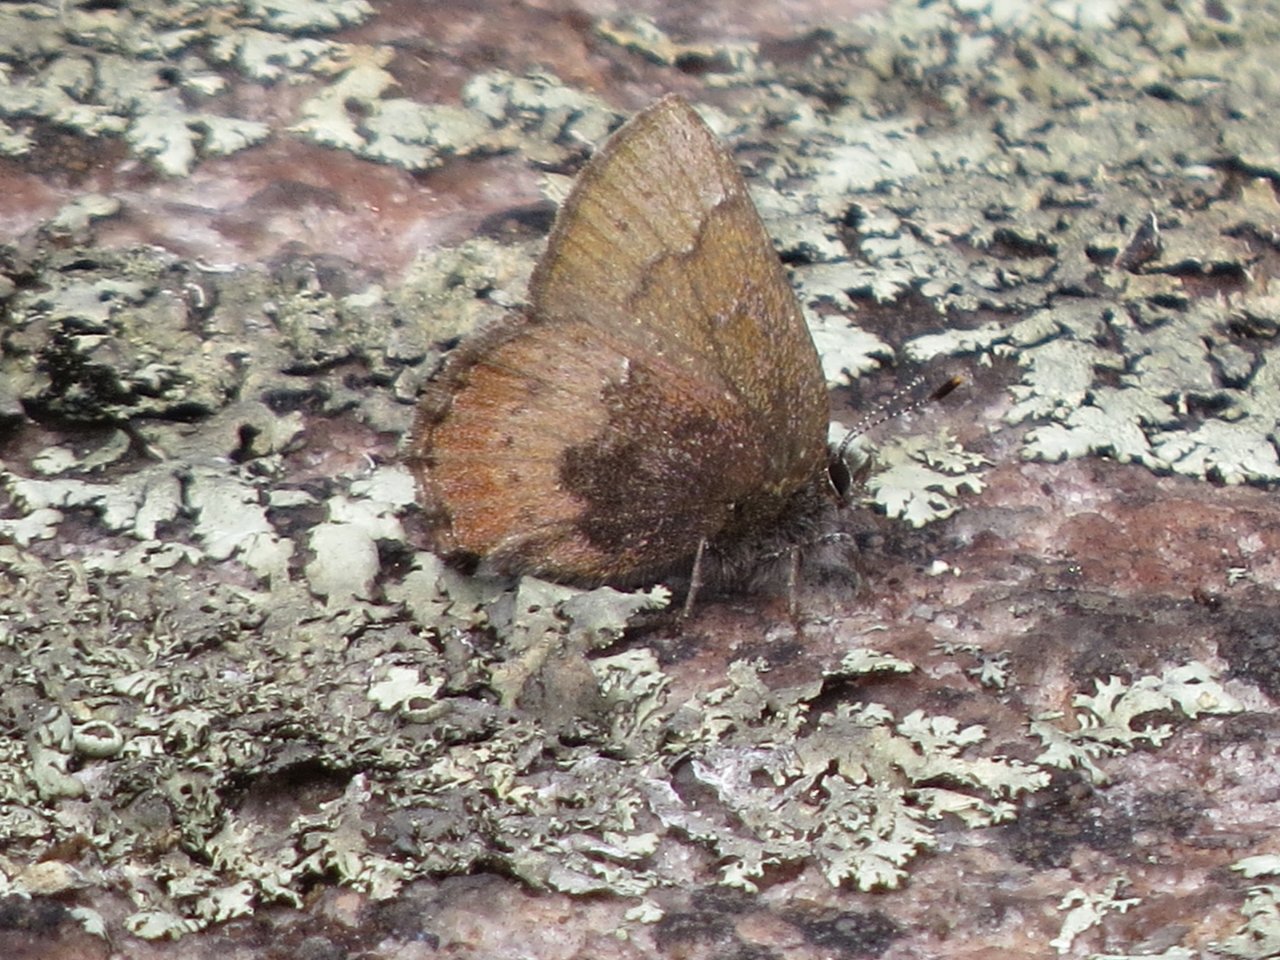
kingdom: Animalia
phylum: Arthropoda
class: Insecta
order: Lepidoptera
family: Lycaenidae
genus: Incisalia
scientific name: Incisalia irioides
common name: Brown Elfin
